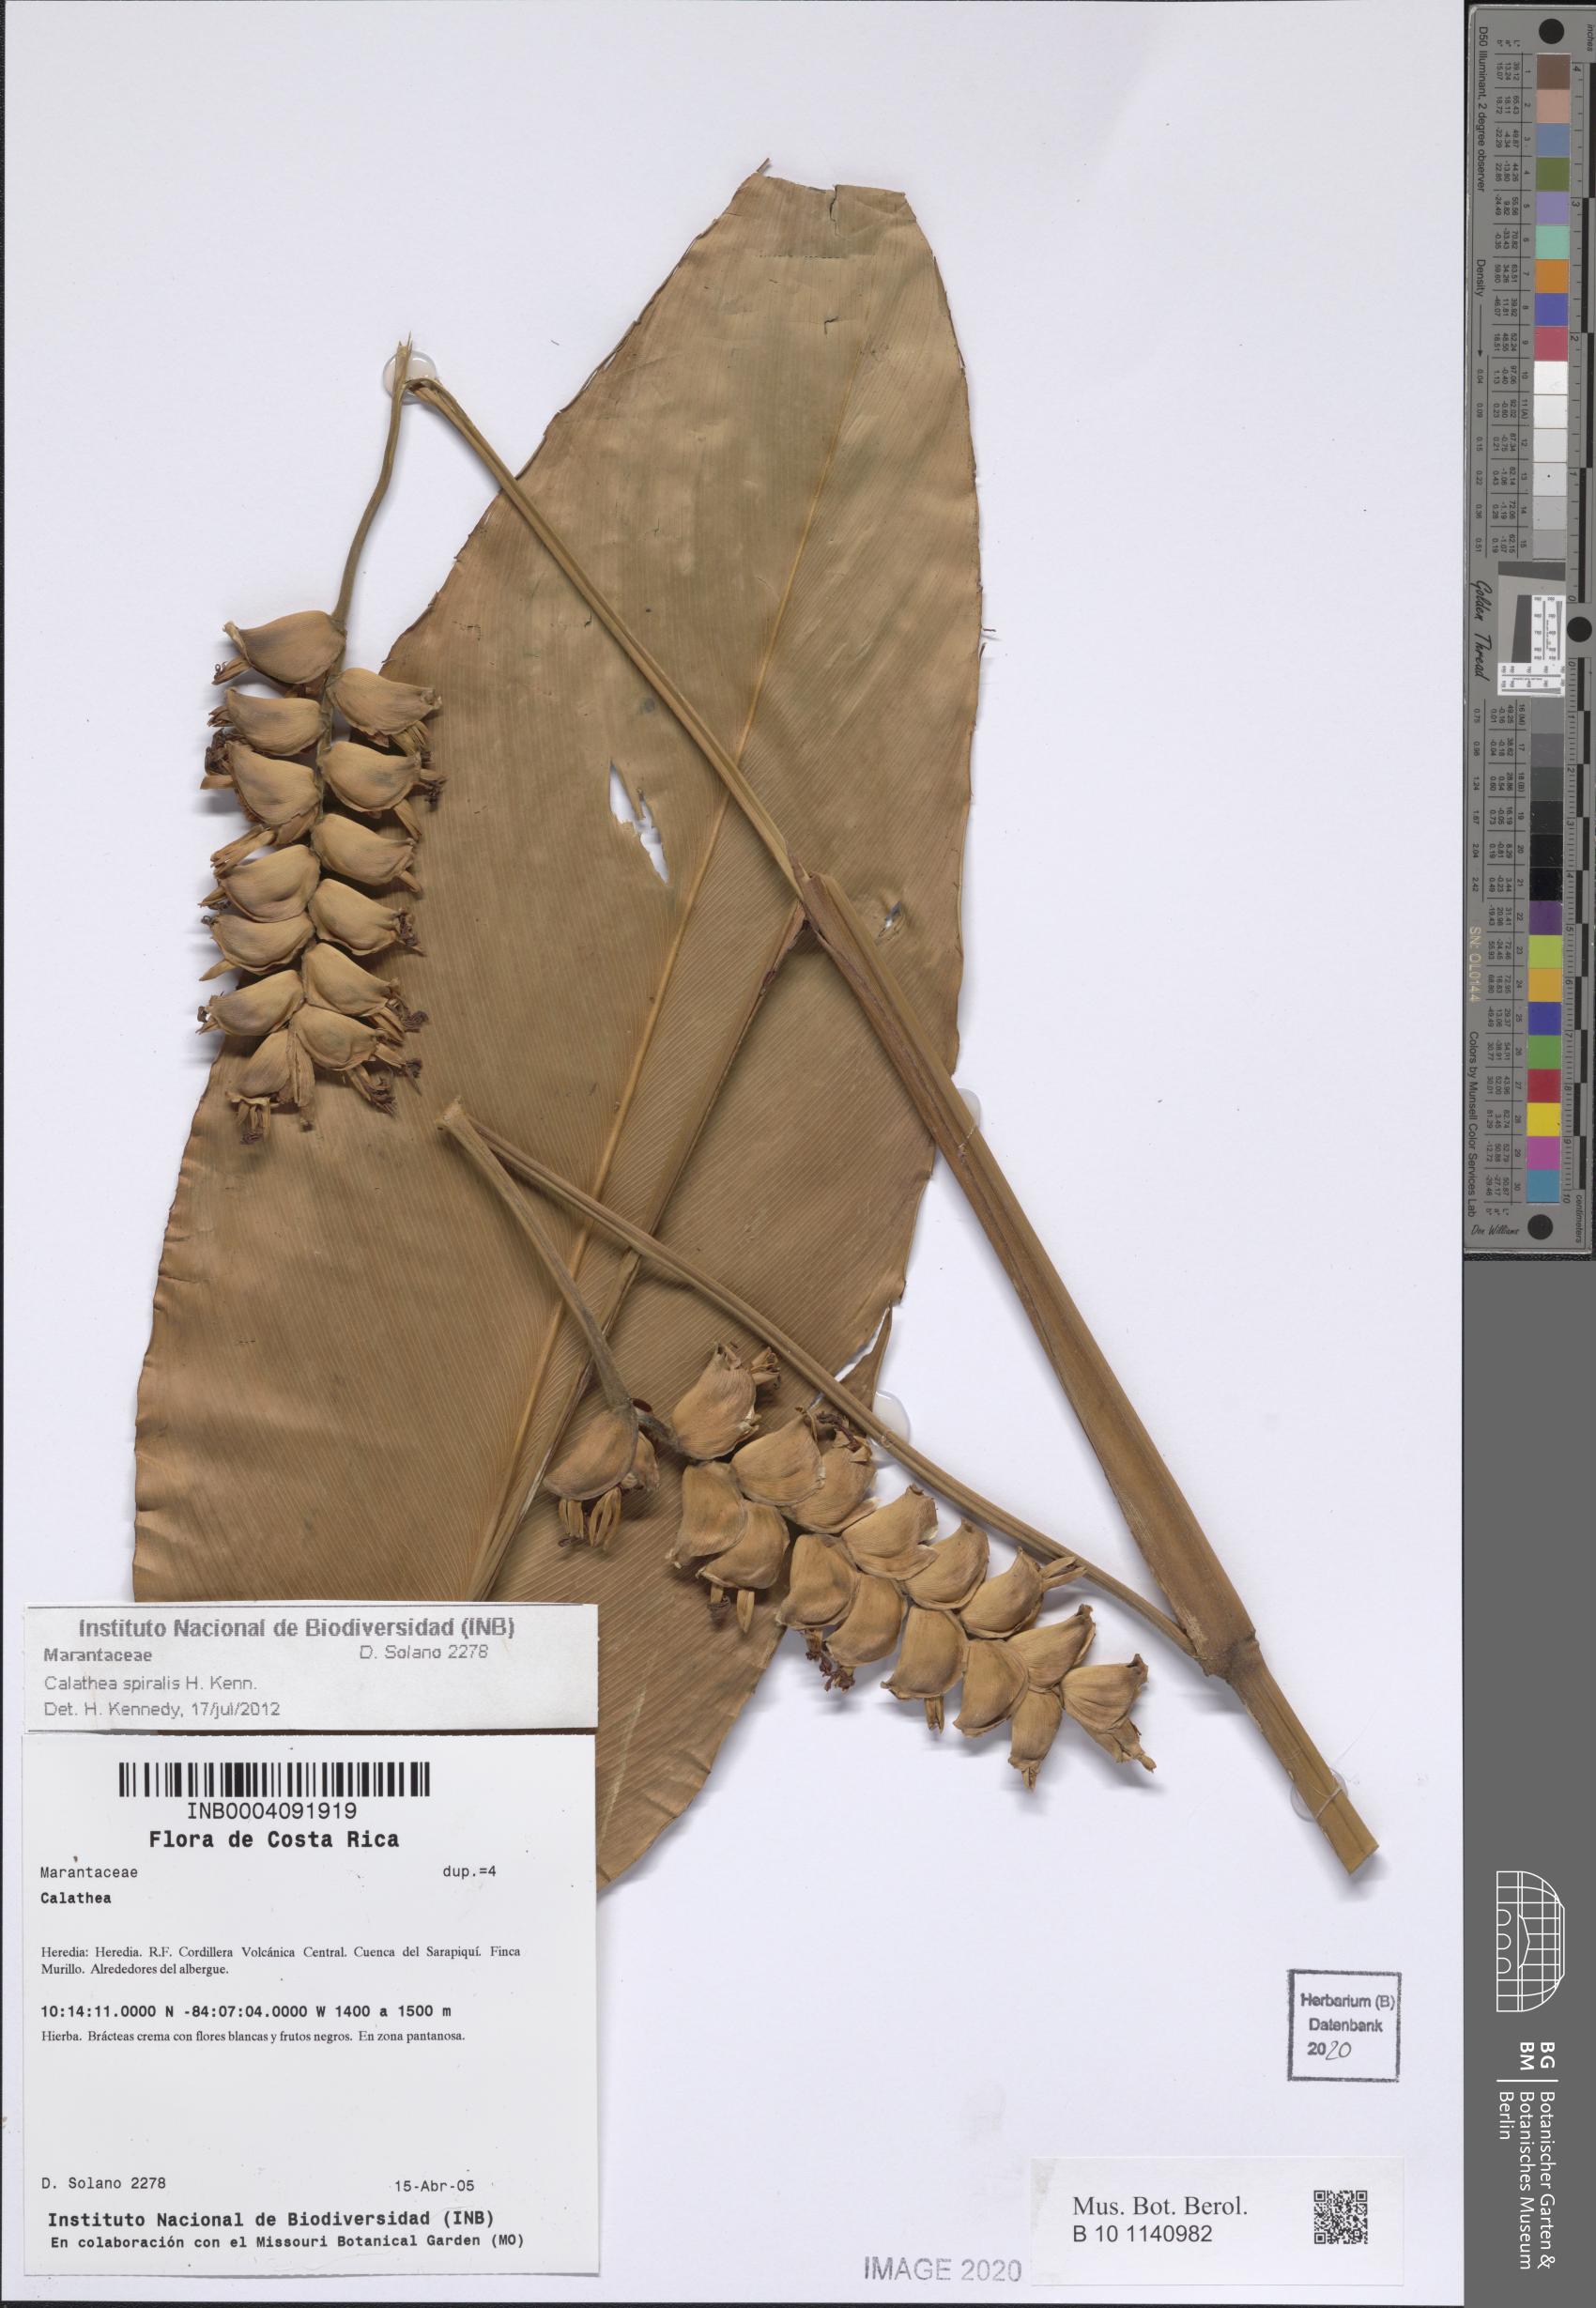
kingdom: Plantae
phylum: Tracheophyta
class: Liliopsida
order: Zingiberales
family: Marantaceae
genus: Calathea
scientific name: Calathea spiralis
